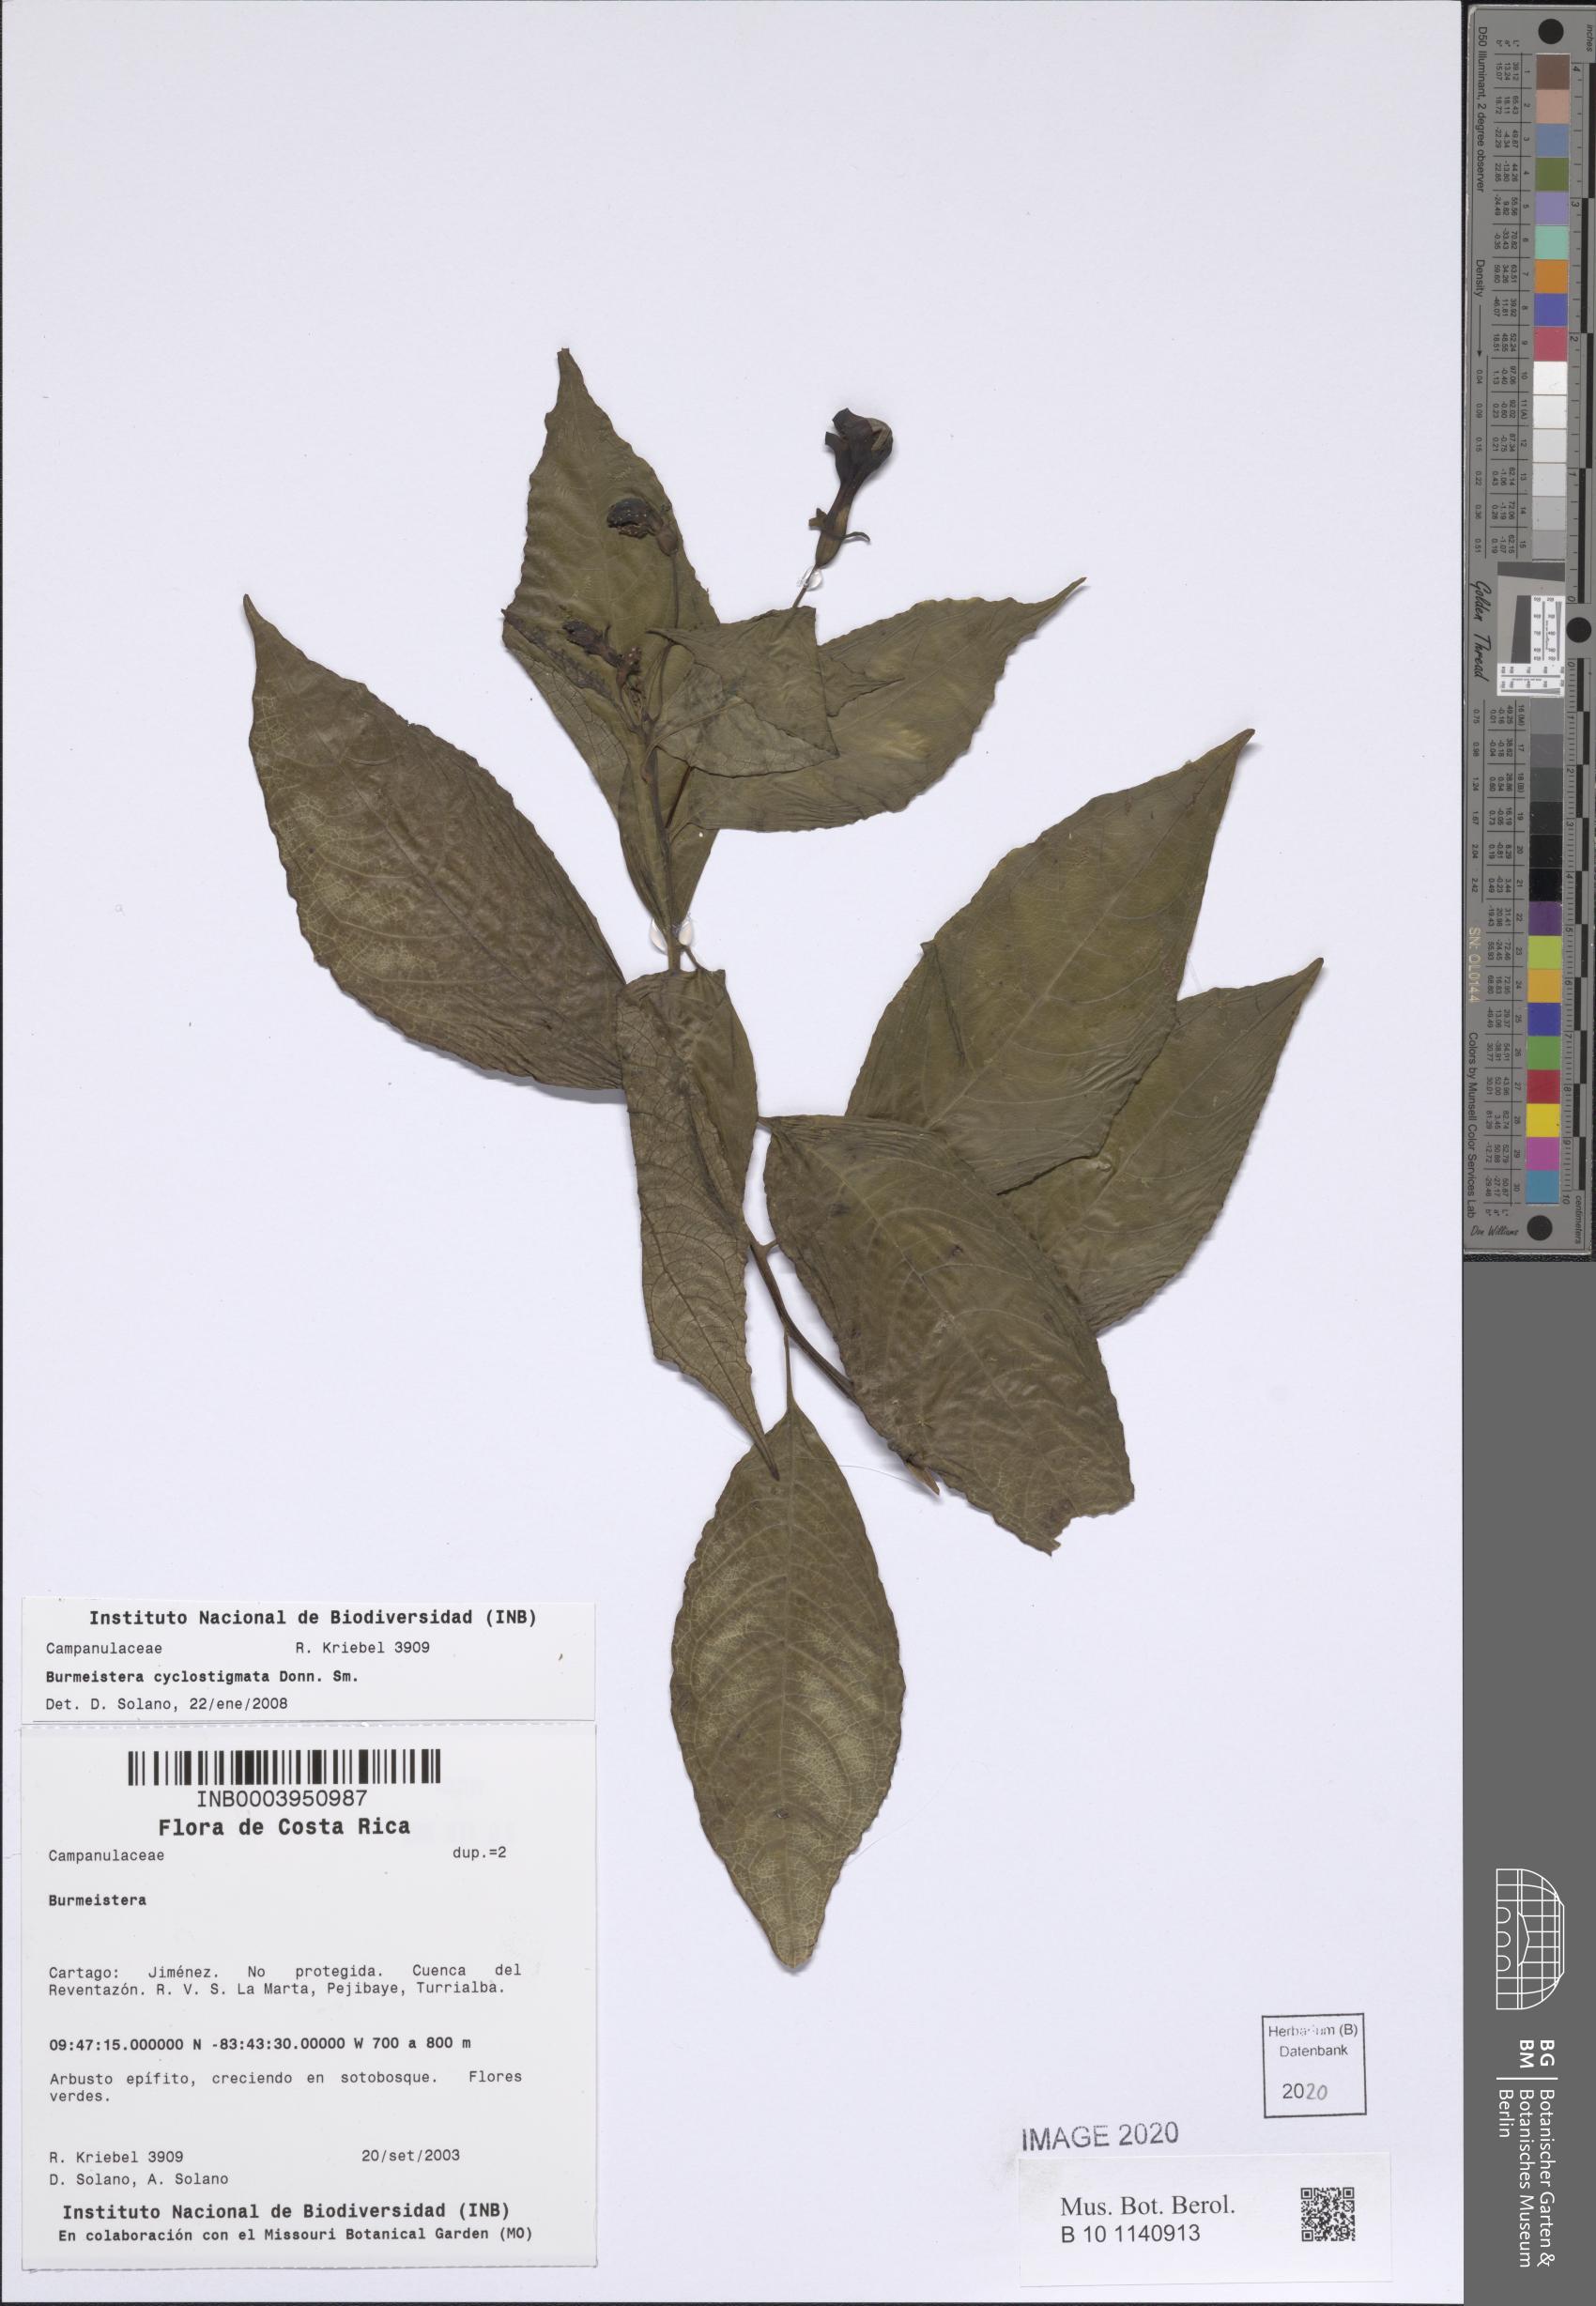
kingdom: Plantae
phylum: Tracheophyta
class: Magnoliopsida
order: Asterales
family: Campanulaceae
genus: Burmeistera
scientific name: Burmeistera cyclostigmata
